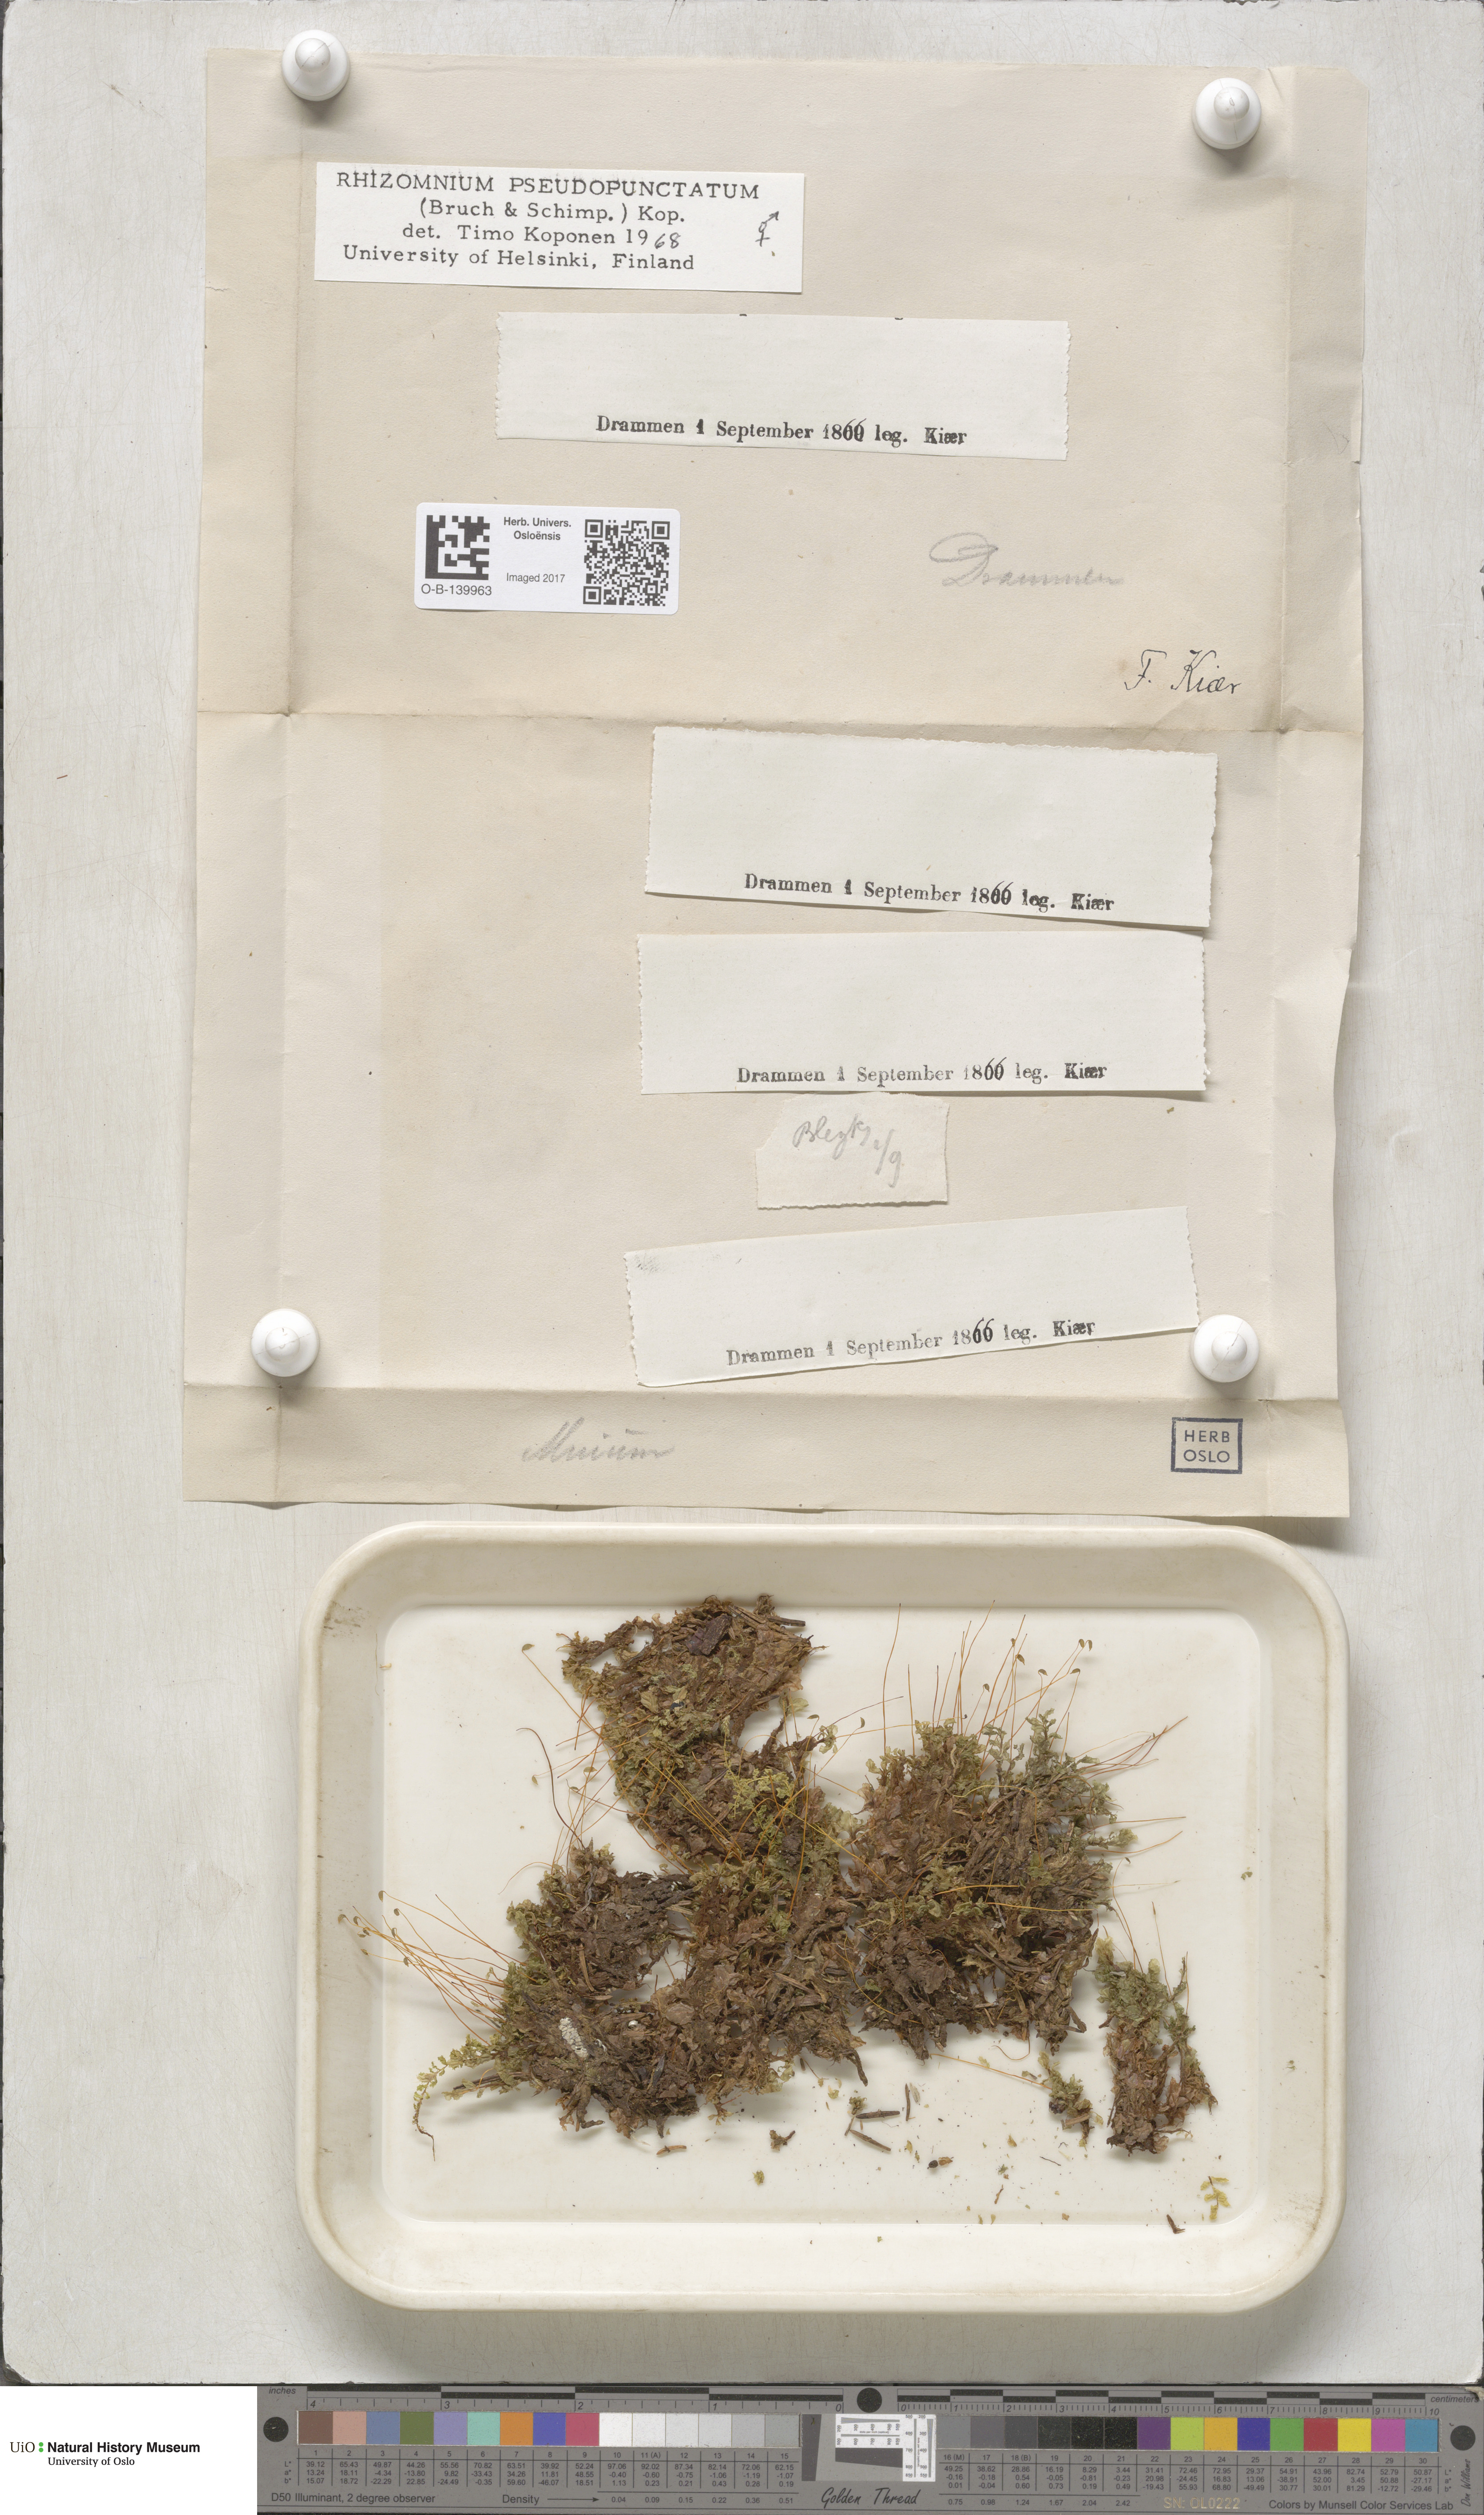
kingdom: Plantae
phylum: Bryophyta
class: Bryopsida
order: Bryales
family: Mniaceae
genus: Rhizomnium
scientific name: Rhizomnium pseudopunctatum
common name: Felted leafy moss
